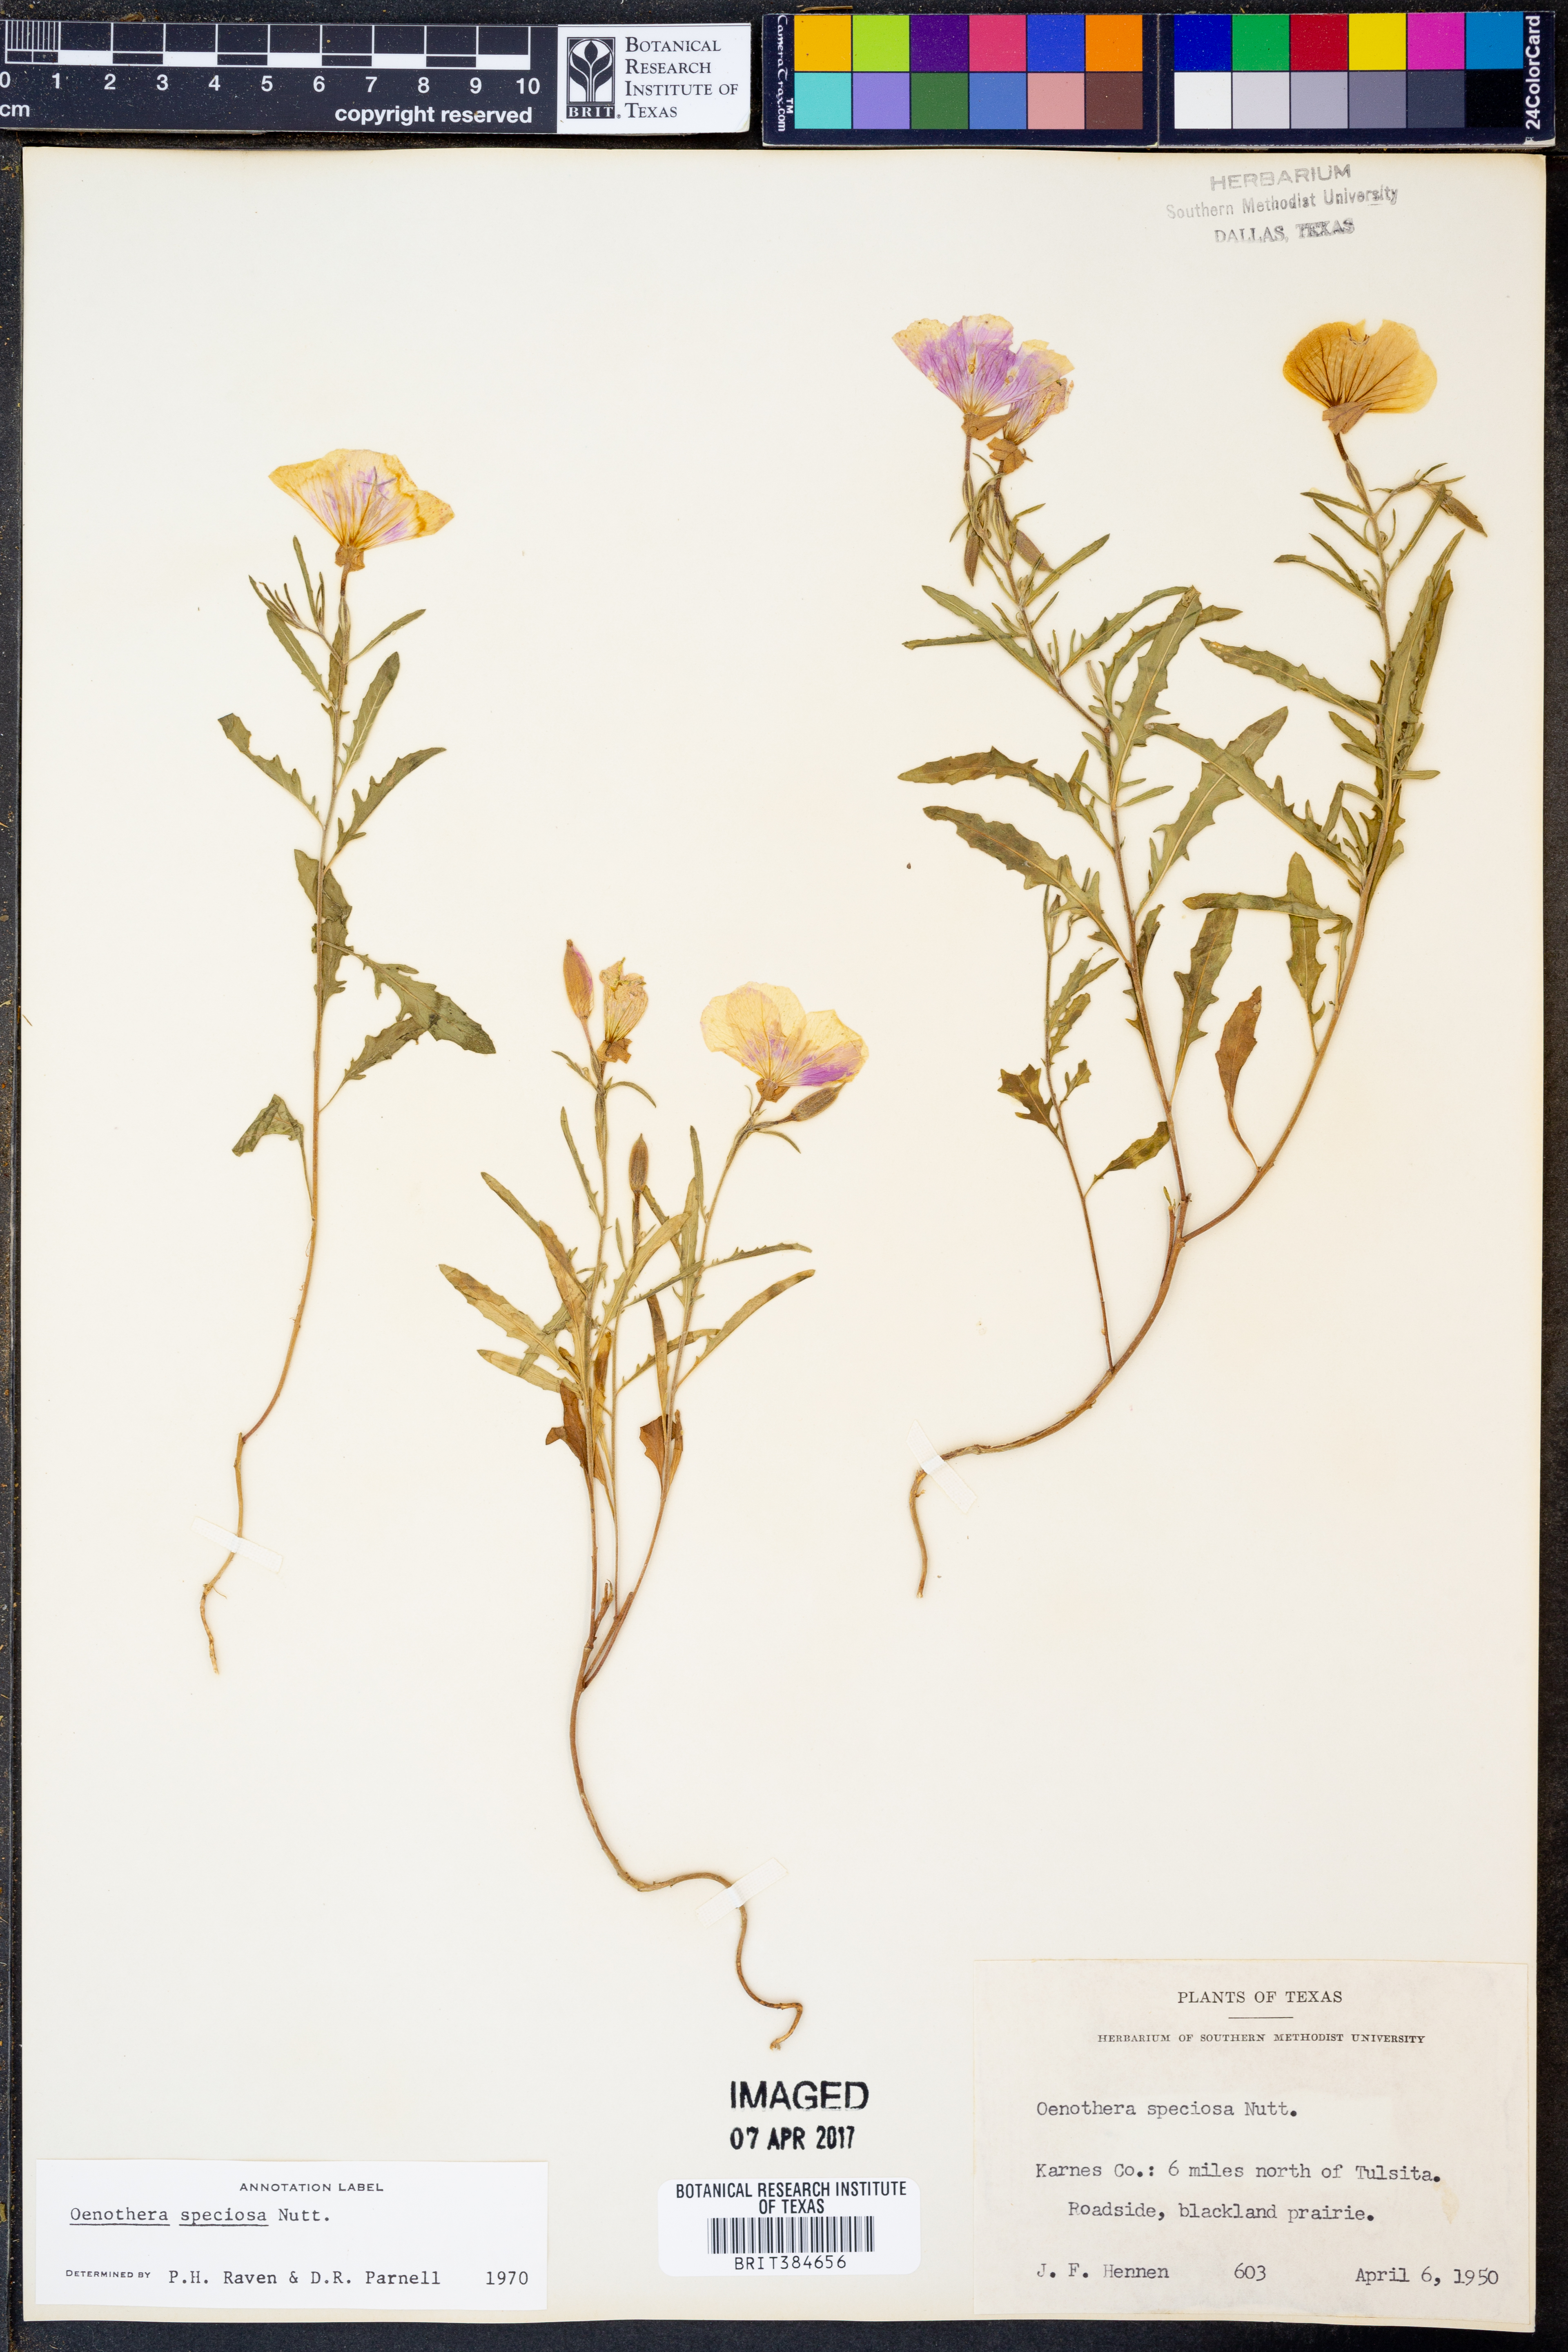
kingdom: Plantae
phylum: Tracheophyta
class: Magnoliopsida
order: Myrtales
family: Onagraceae
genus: Oenothera
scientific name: Oenothera speciosa
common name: White evening-primrose
